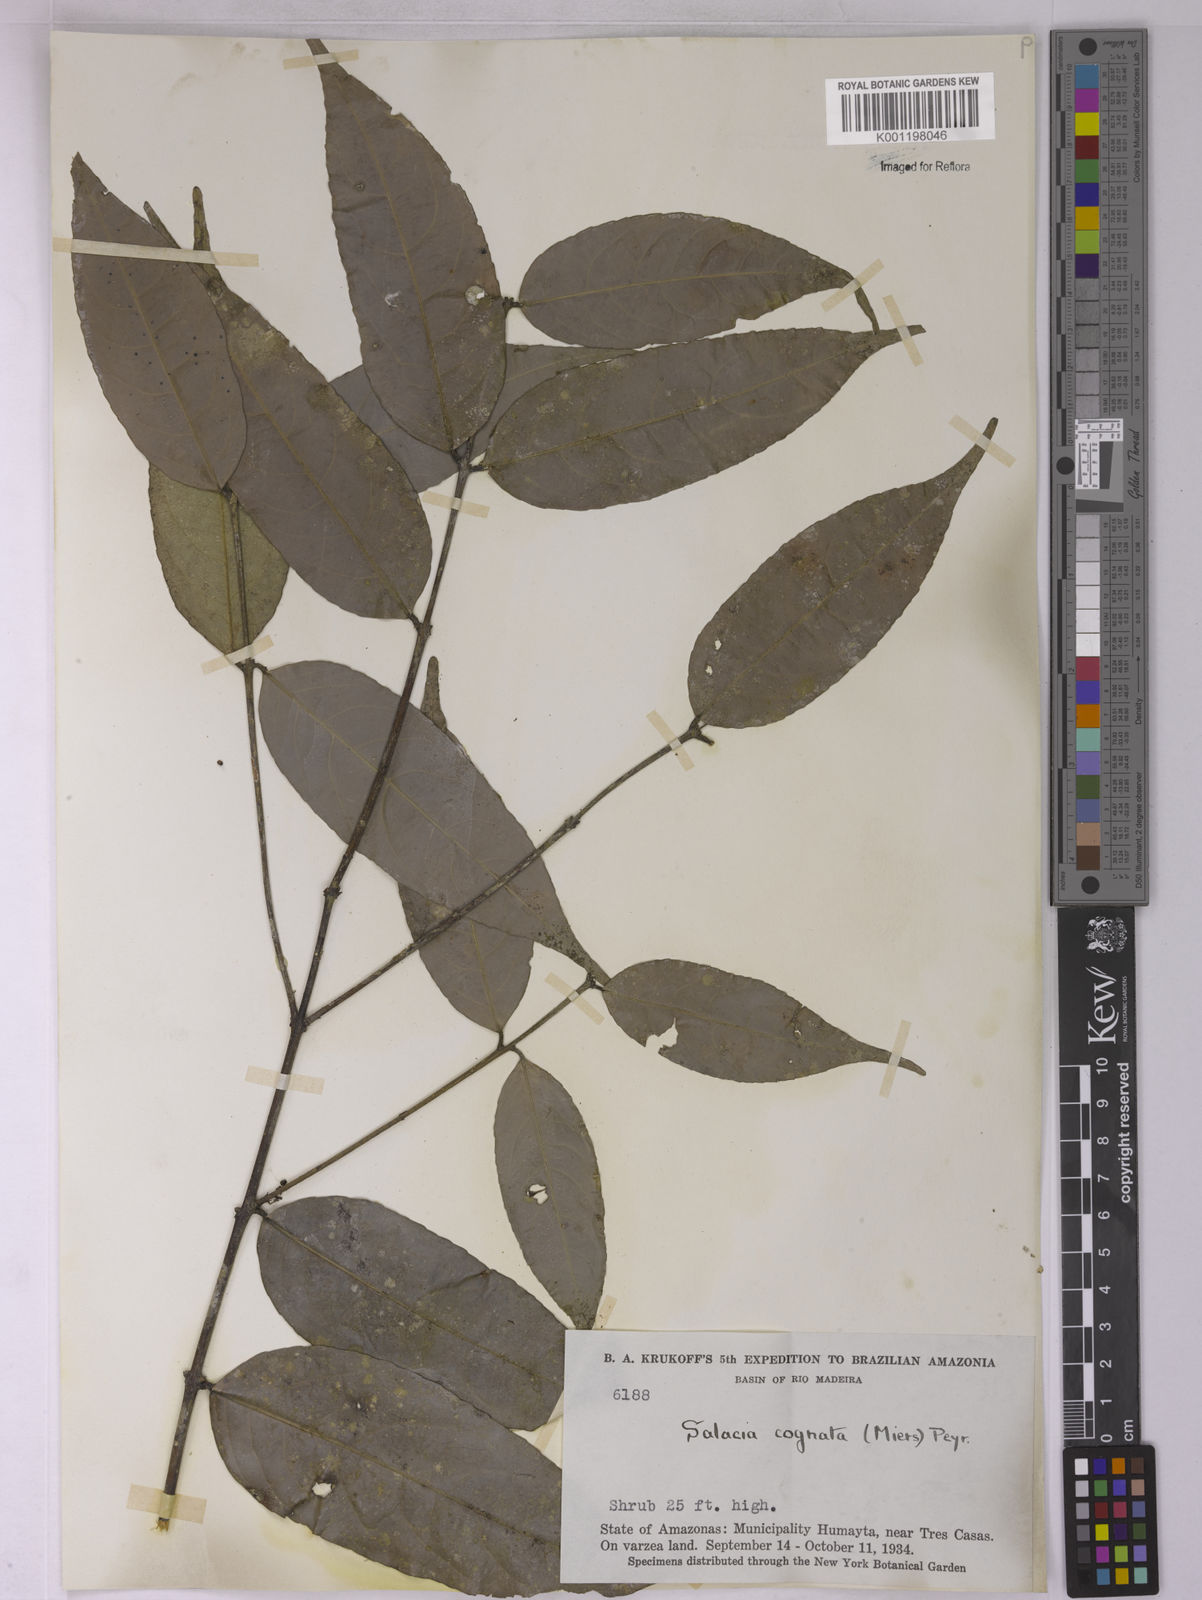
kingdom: Plantae
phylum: Tracheophyta
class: Magnoliopsida
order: Celastrales
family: Celastraceae
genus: Cheiloclinium
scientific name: Cheiloclinium cognatum
